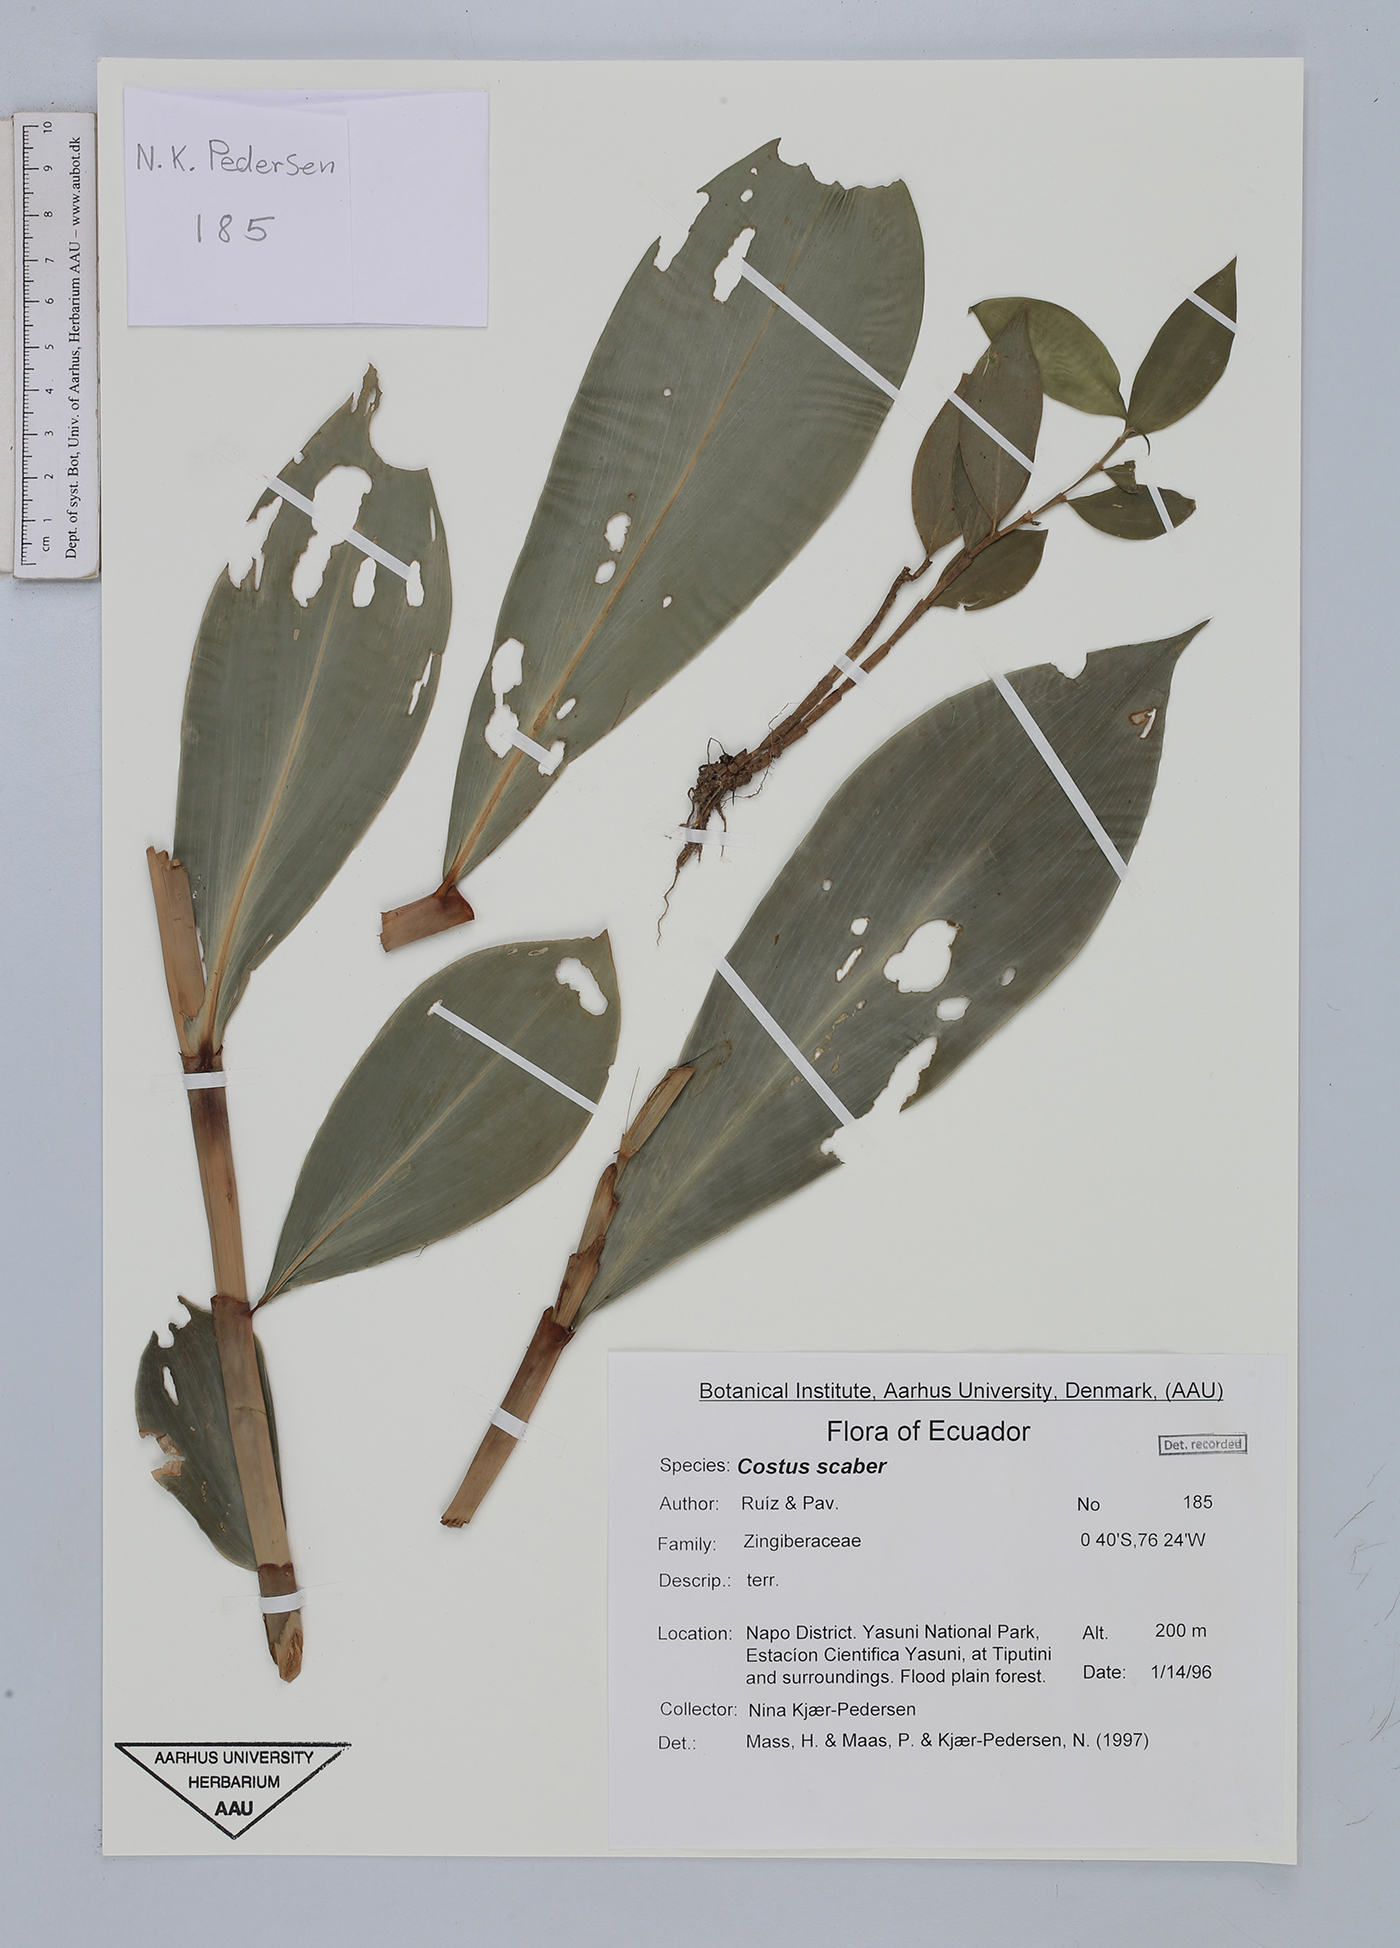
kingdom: Plantae
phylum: Tracheophyta
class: Liliopsida
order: Zingiberales
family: Costaceae
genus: Costus
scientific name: Costus scaber
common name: Spiral head ginger
